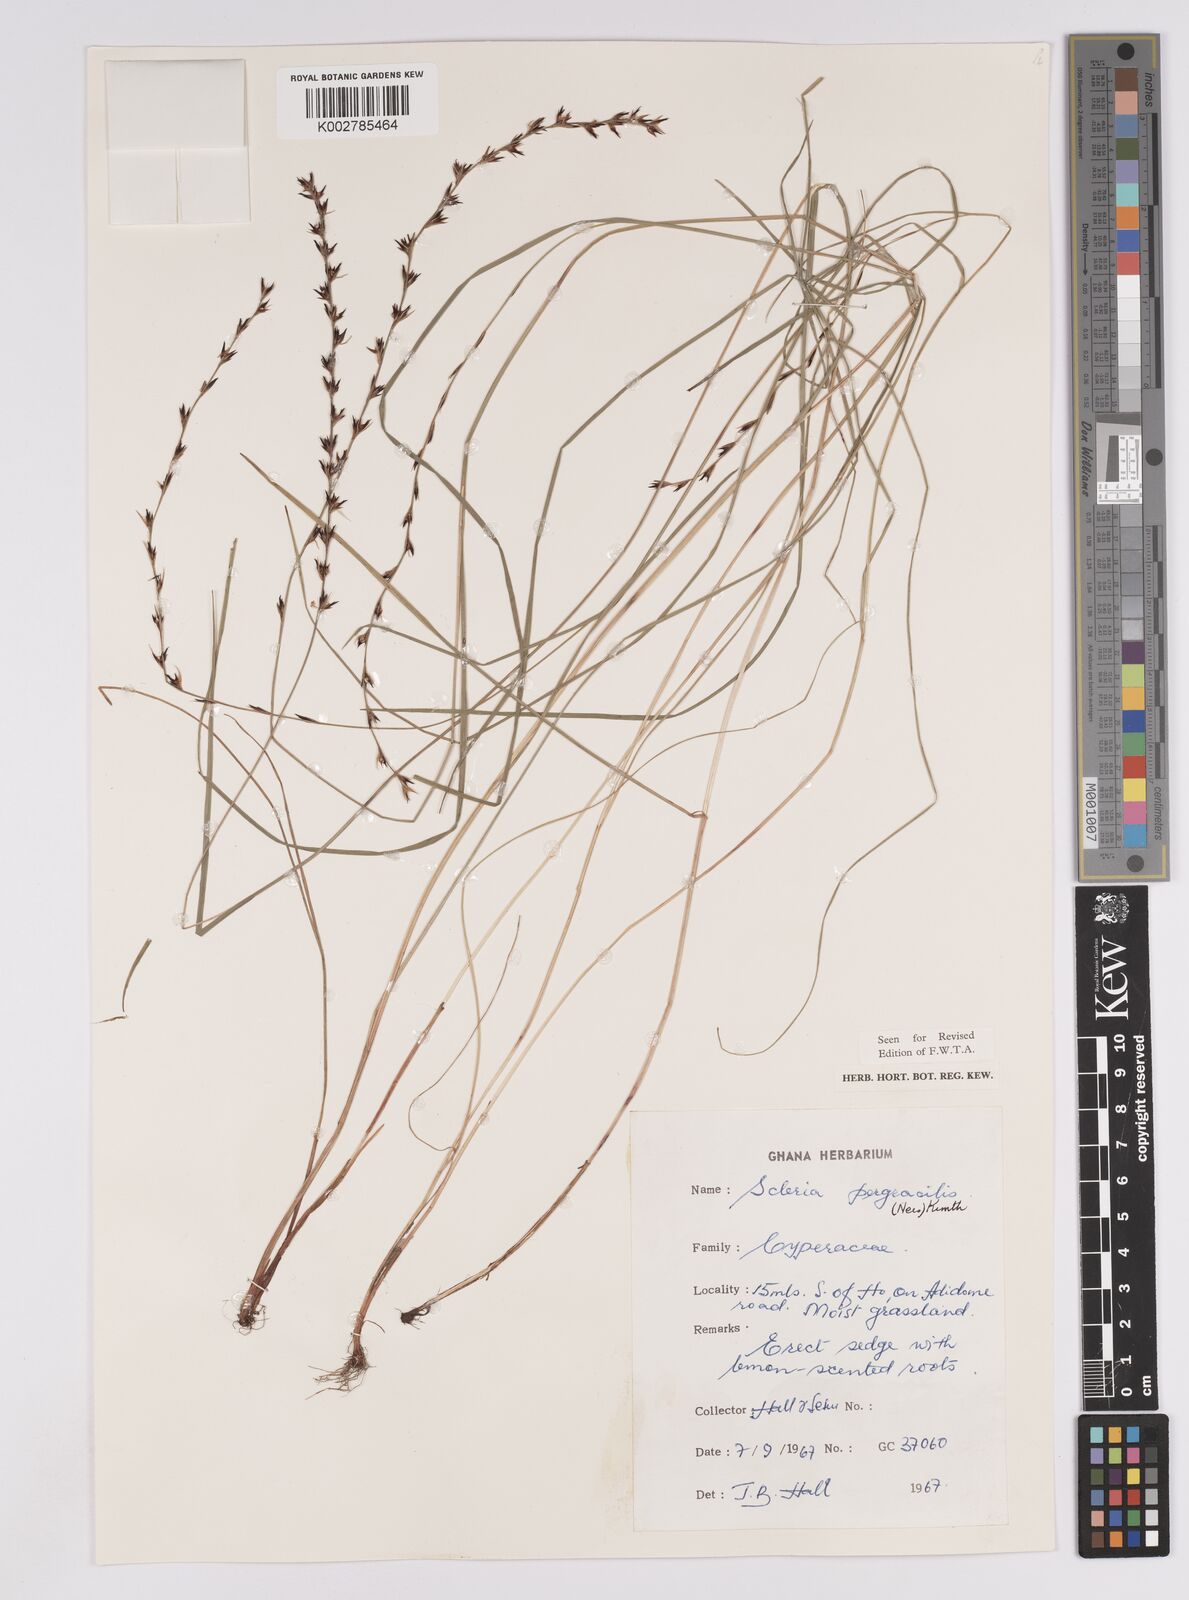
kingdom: Plantae
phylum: Tracheophyta
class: Liliopsida
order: Poales
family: Cyperaceae
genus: Scleria
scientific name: Scleria pergracilis
